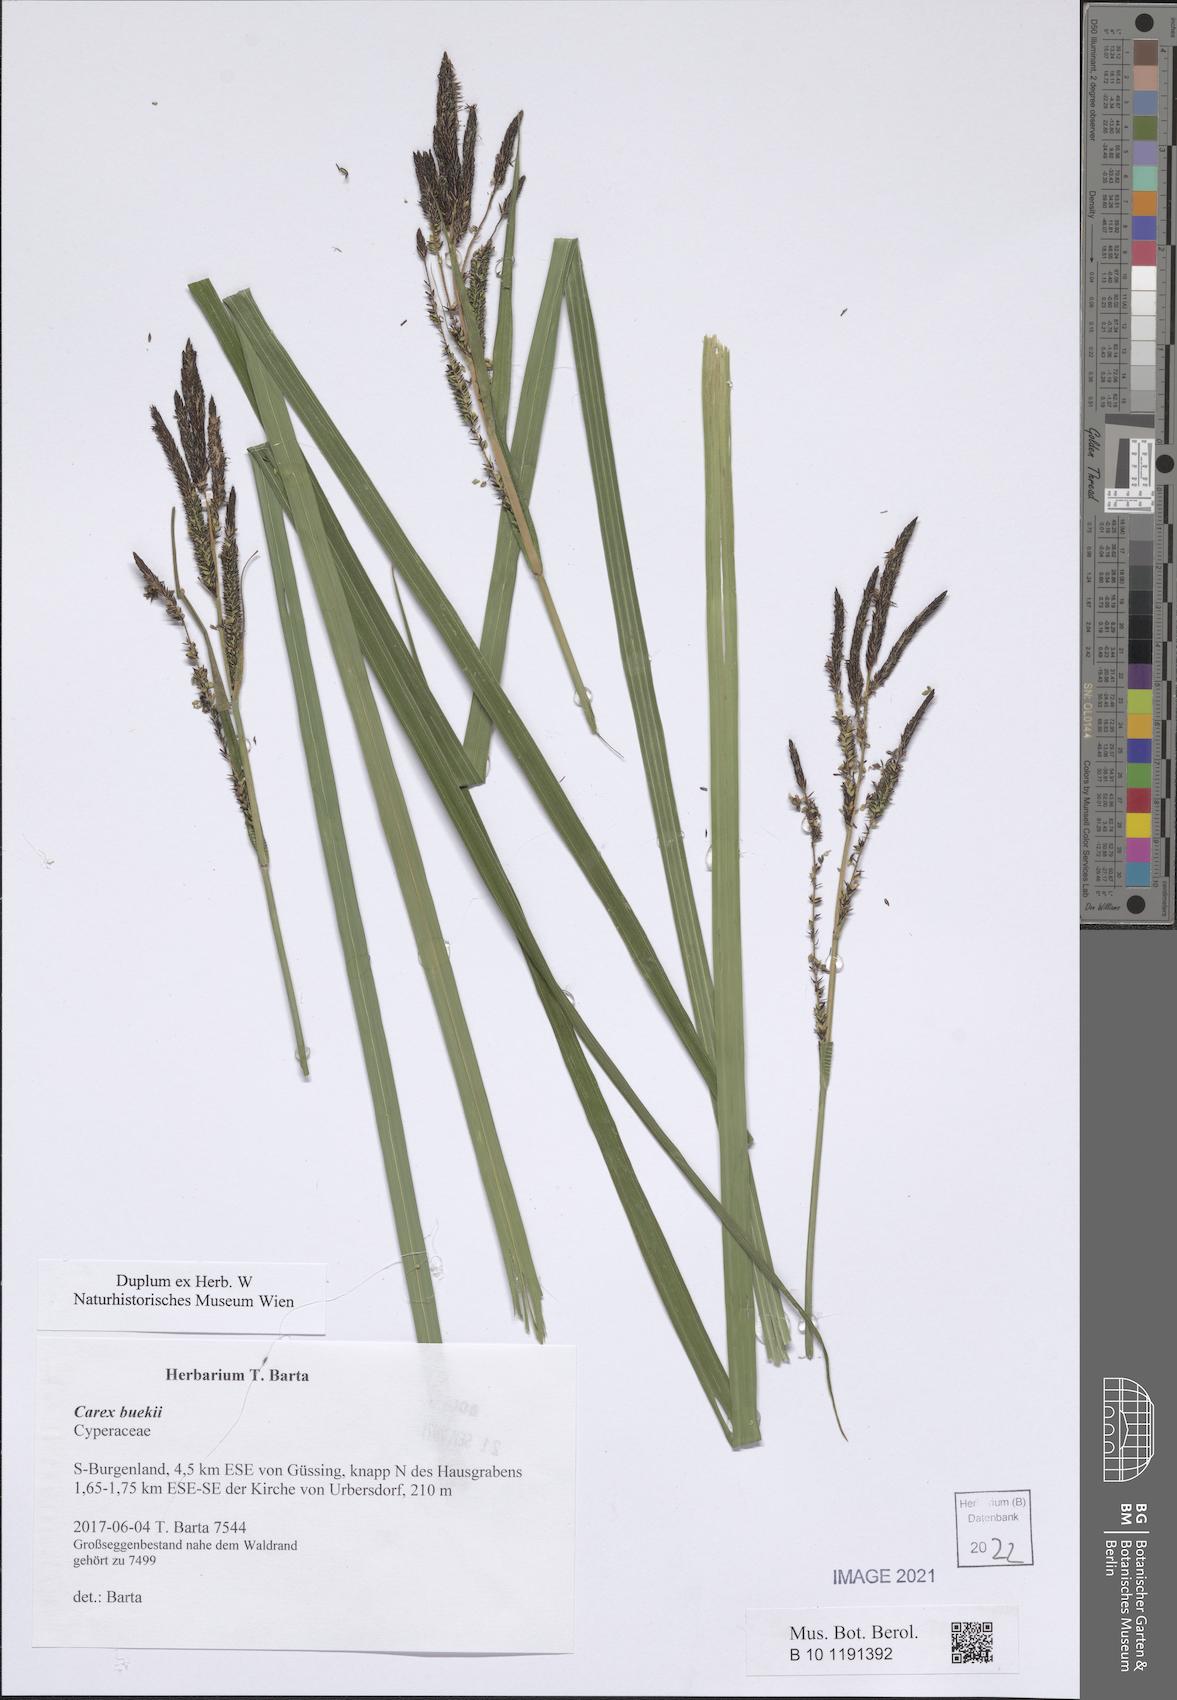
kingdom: Plantae
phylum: Tracheophyta
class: Liliopsida
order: Poales
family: Cyperaceae
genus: Carex
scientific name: Carex buekii
